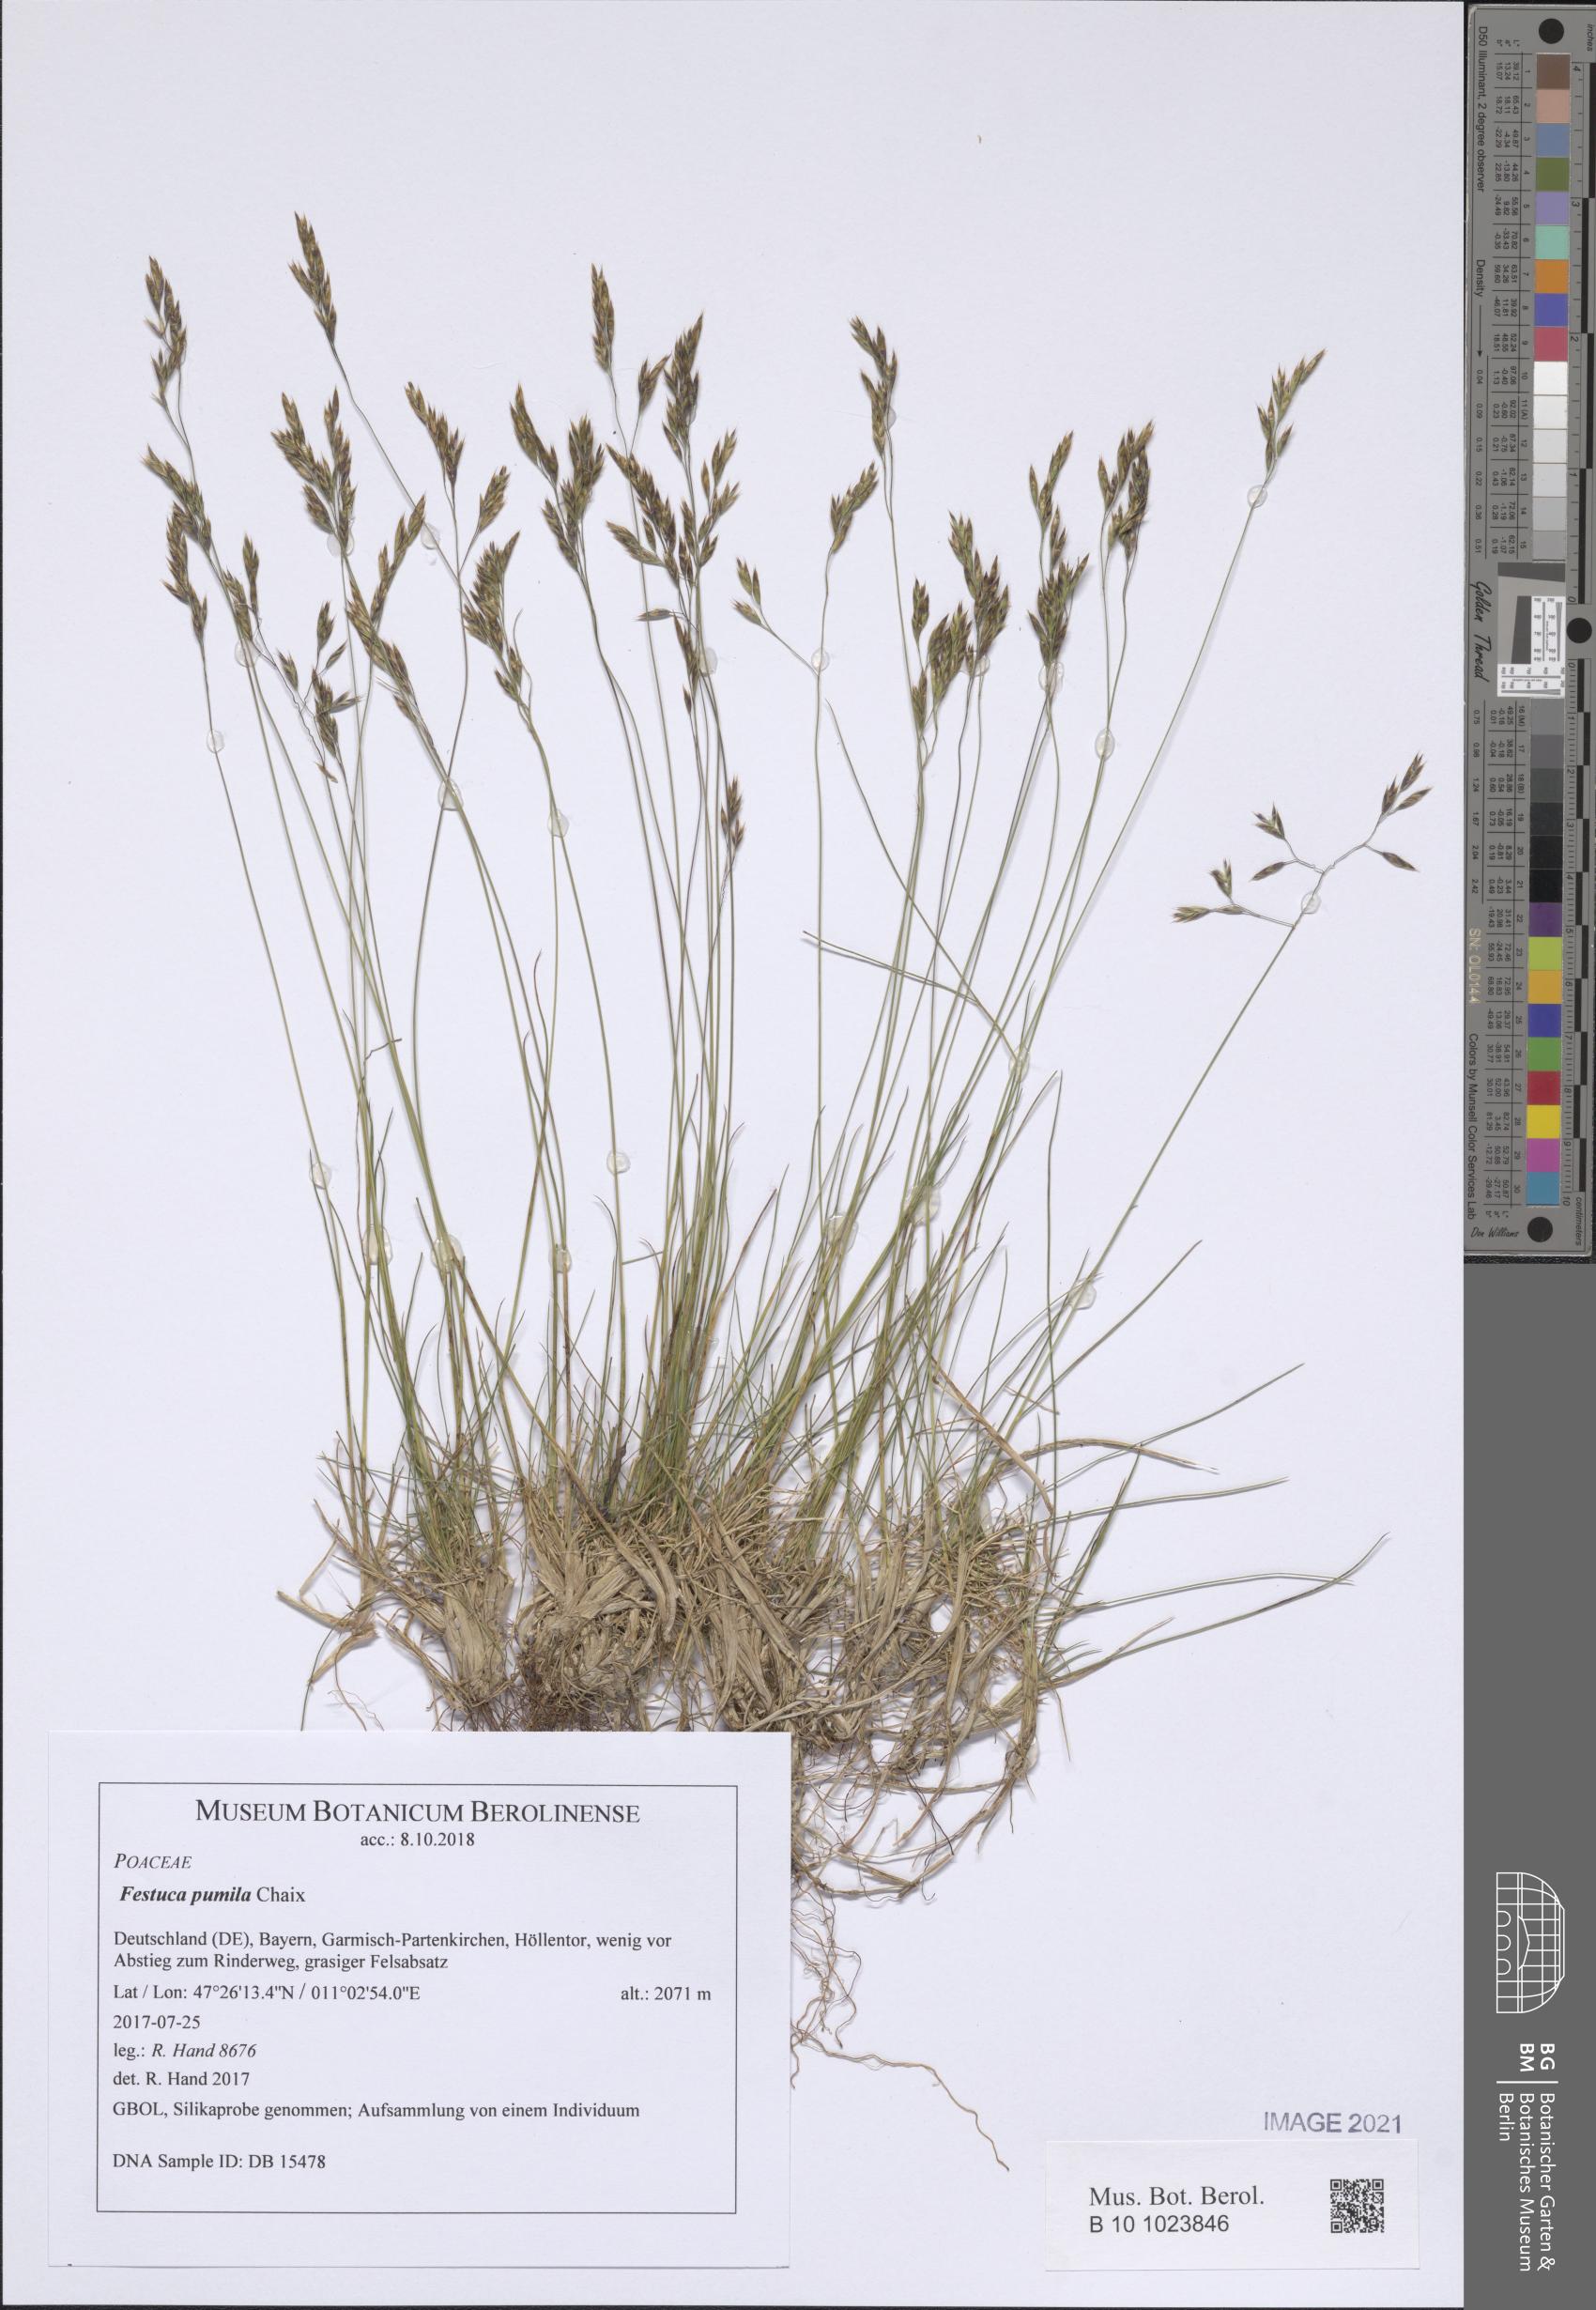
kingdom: Plantae
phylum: Tracheophyta
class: Liliopsida
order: Poales
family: Poaceae
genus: Festuca
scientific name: Festuca quadriflora
